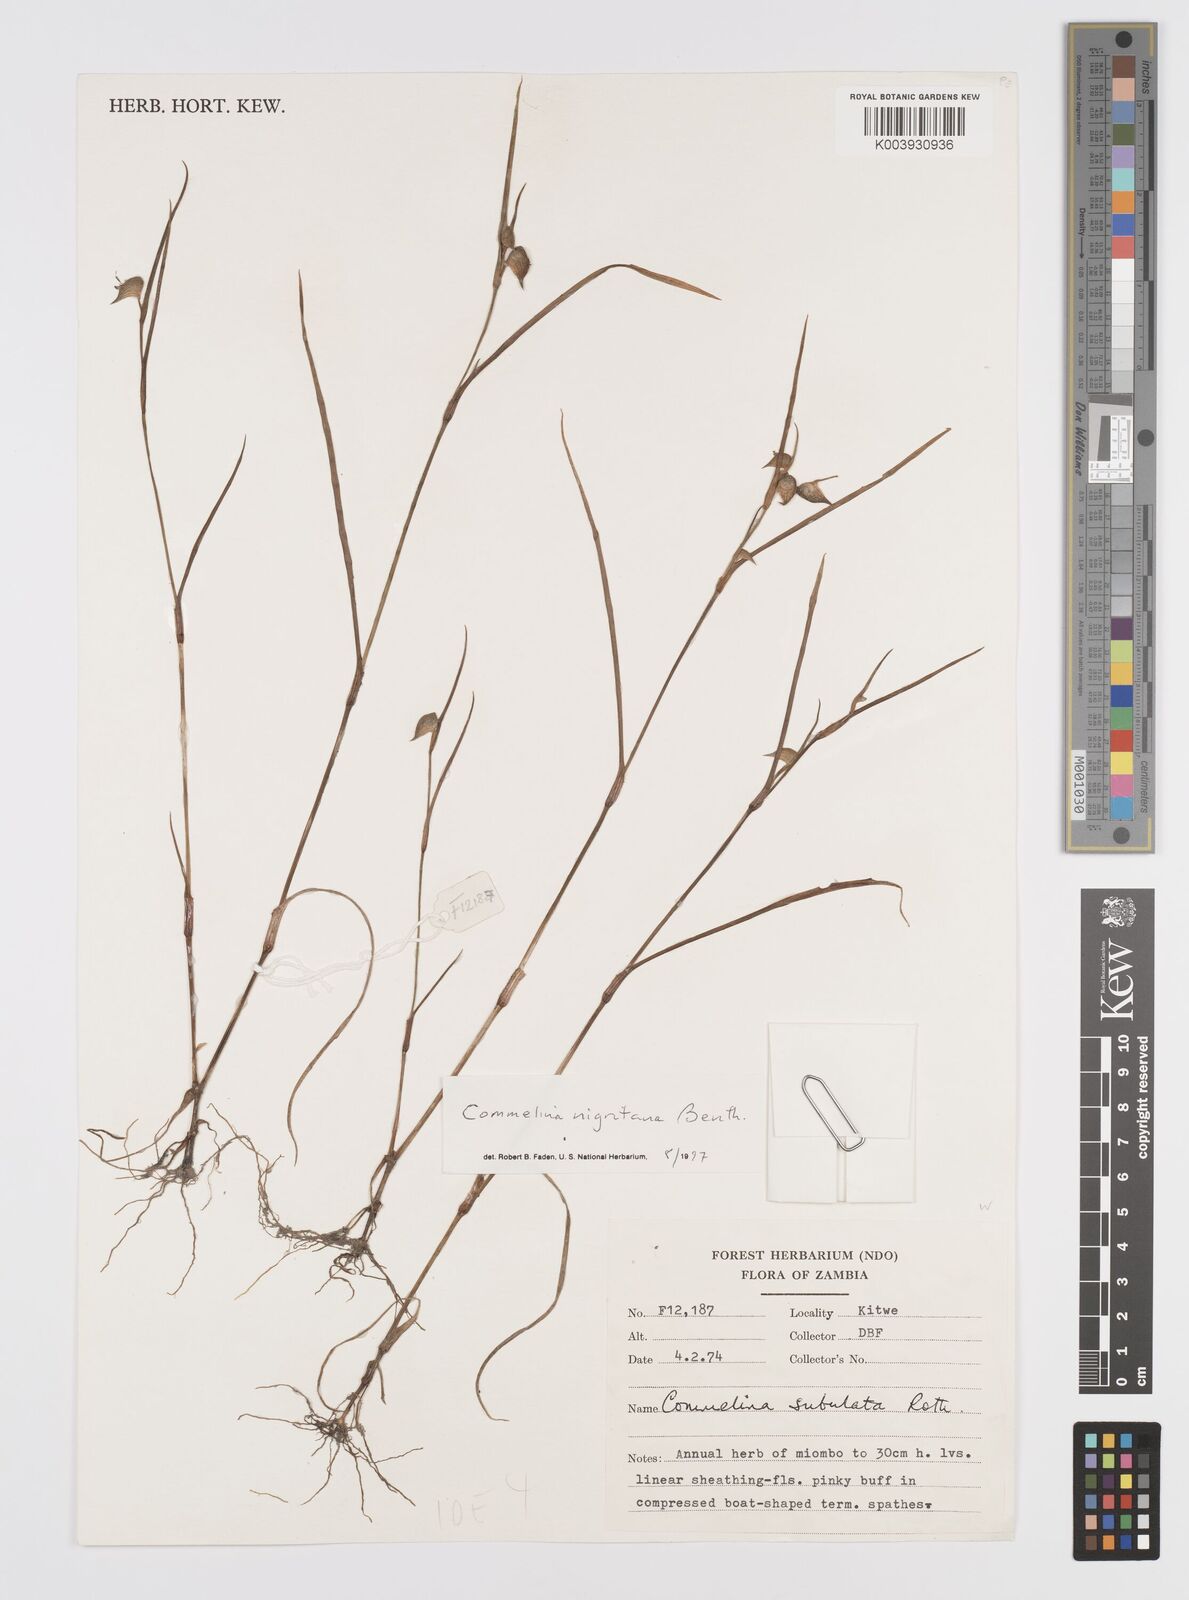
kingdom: Plantae
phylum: Tracheophyta
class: Liliopsida
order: Commelinales
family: Commelinaceae
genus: Commelina
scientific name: Commelina nigritana
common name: African dayflower
